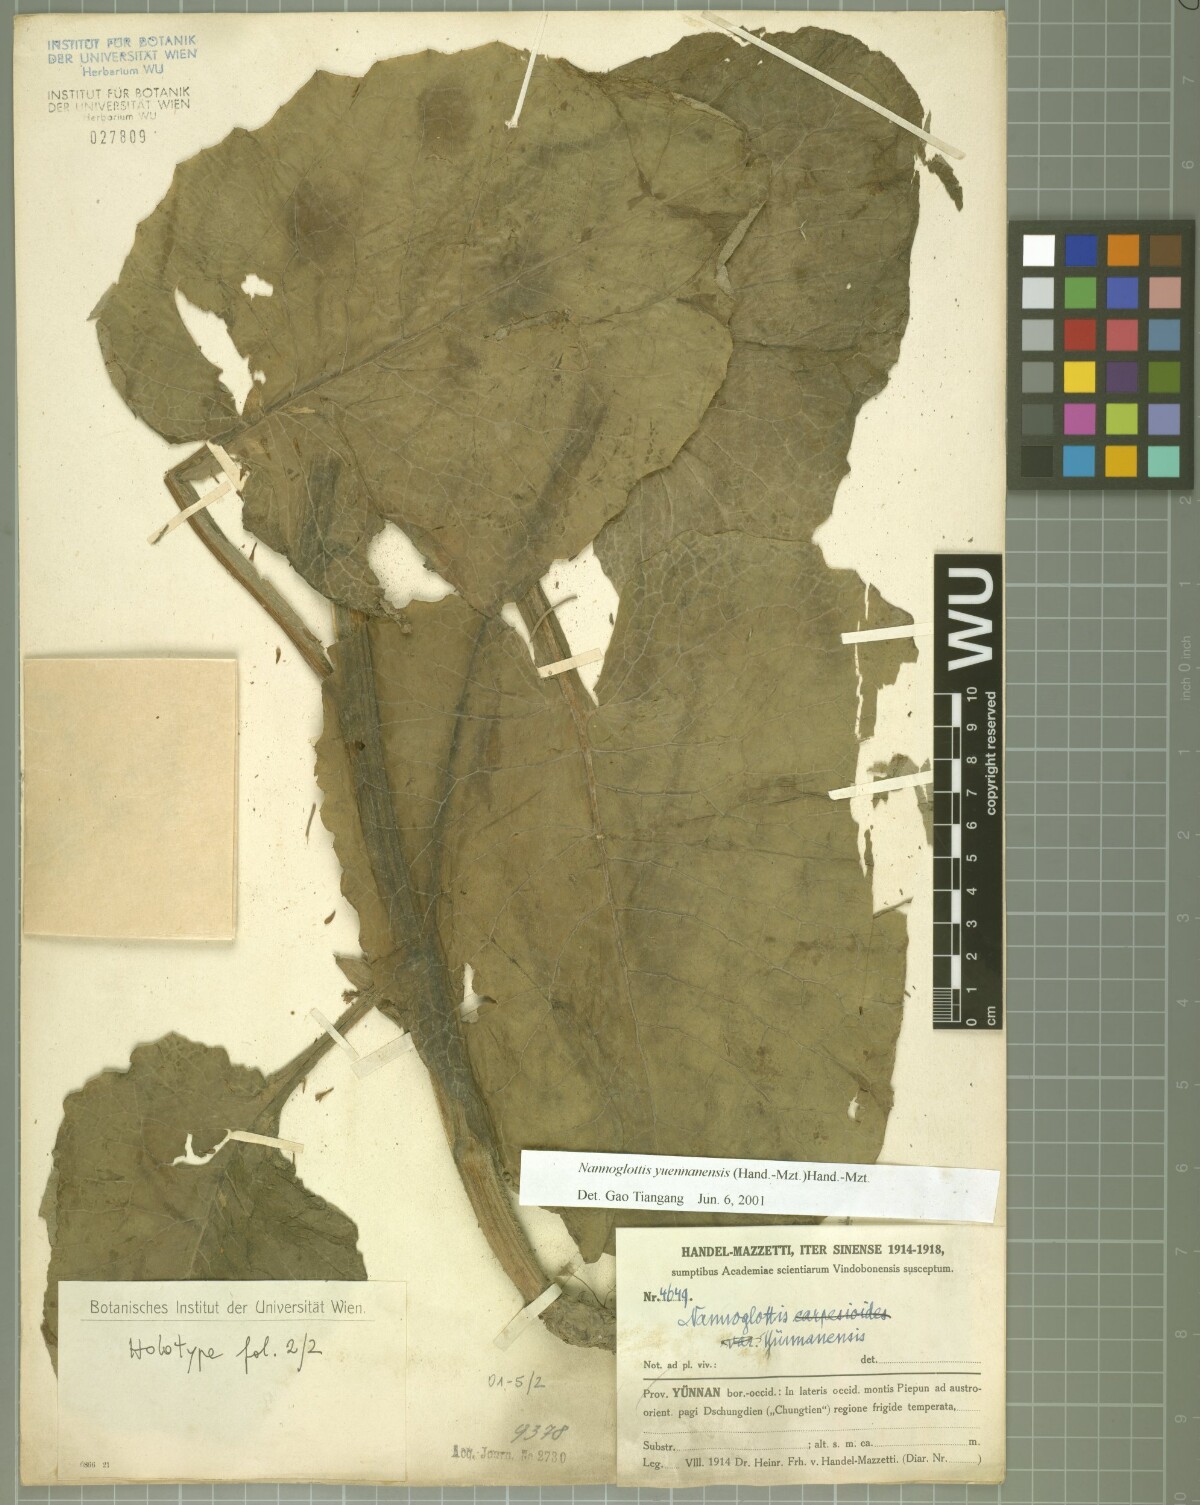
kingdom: Plantae
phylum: Tracheophyta
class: Magnoliopsida
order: Asterales
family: Asteraceae
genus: Nannoglottis
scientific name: Nannoglottis yuennanensis
